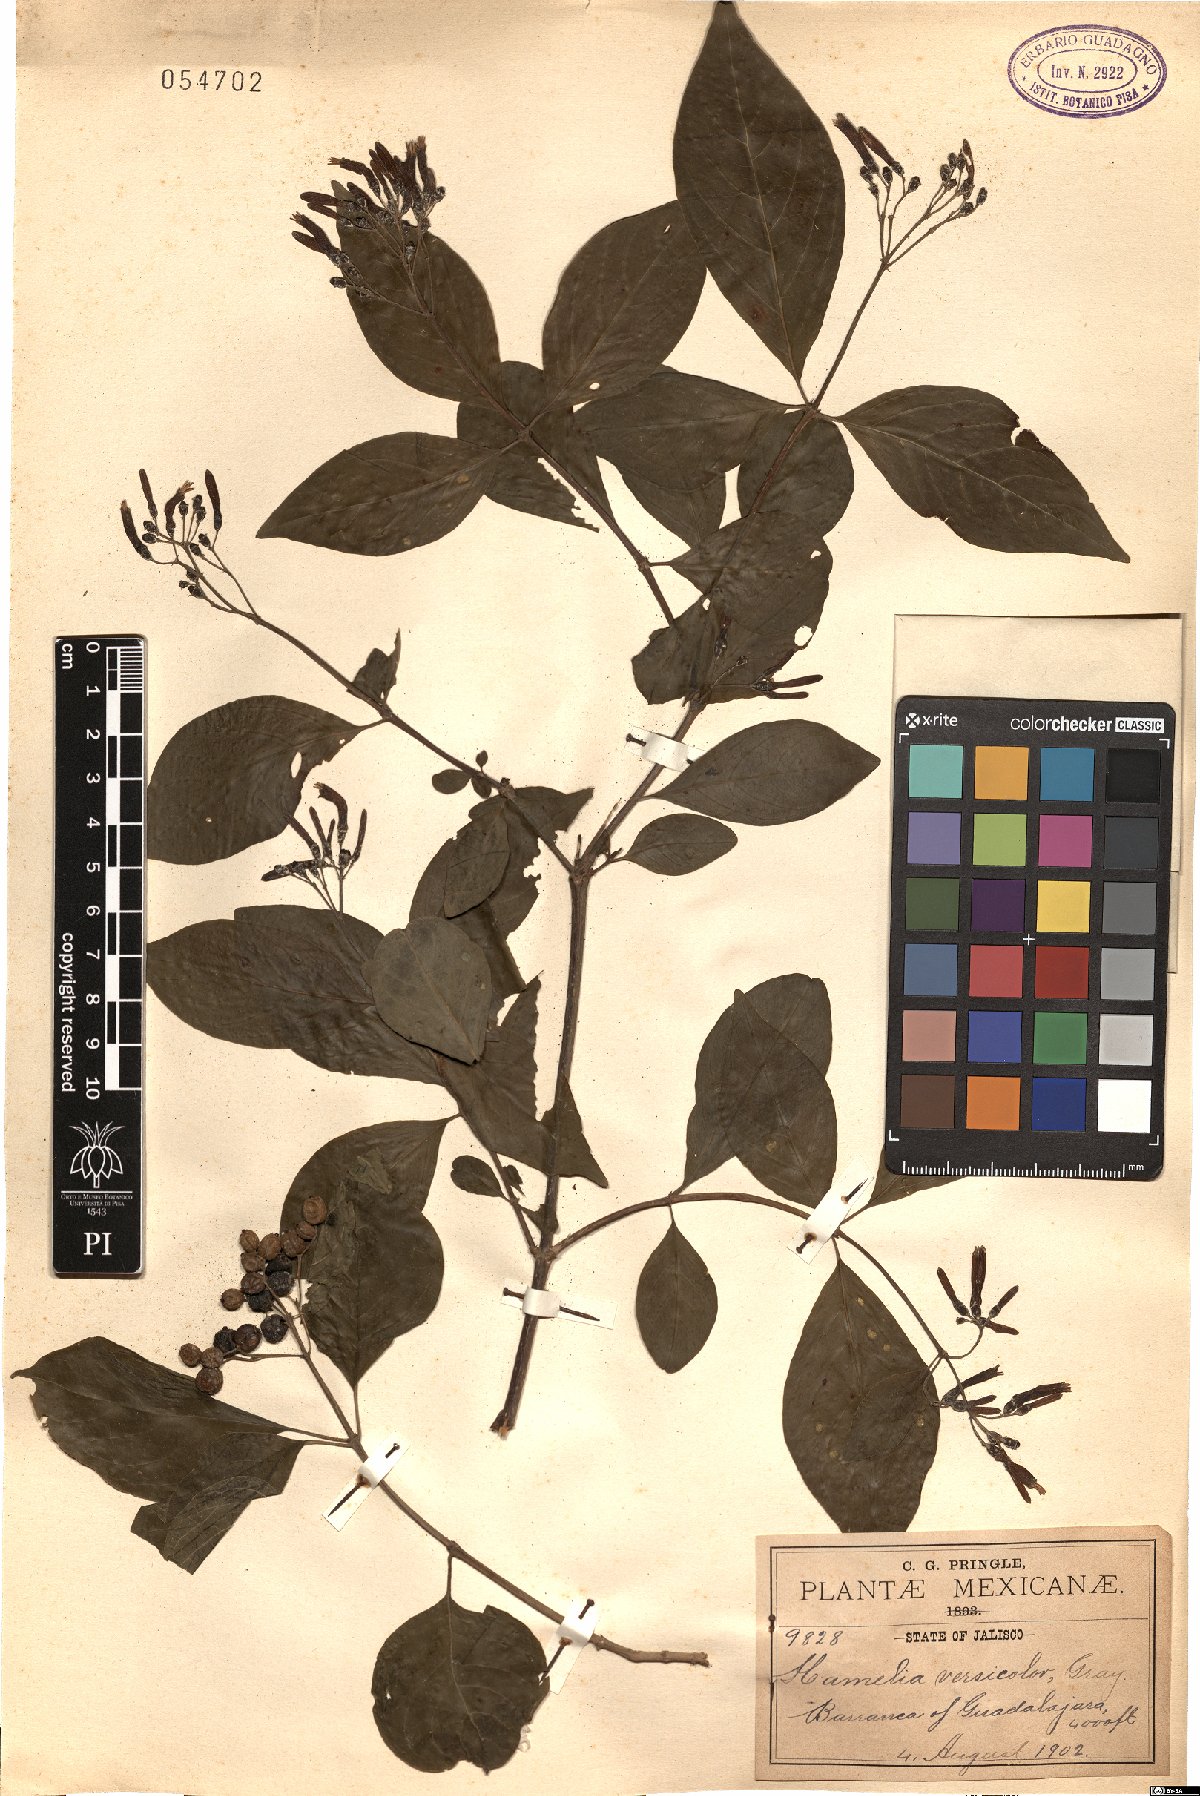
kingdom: Plantae
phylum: Tracheophyta
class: Magnoliopsida
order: Gentianales
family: Rubiaceae
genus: Hamelia
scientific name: Hamelia rostrata
